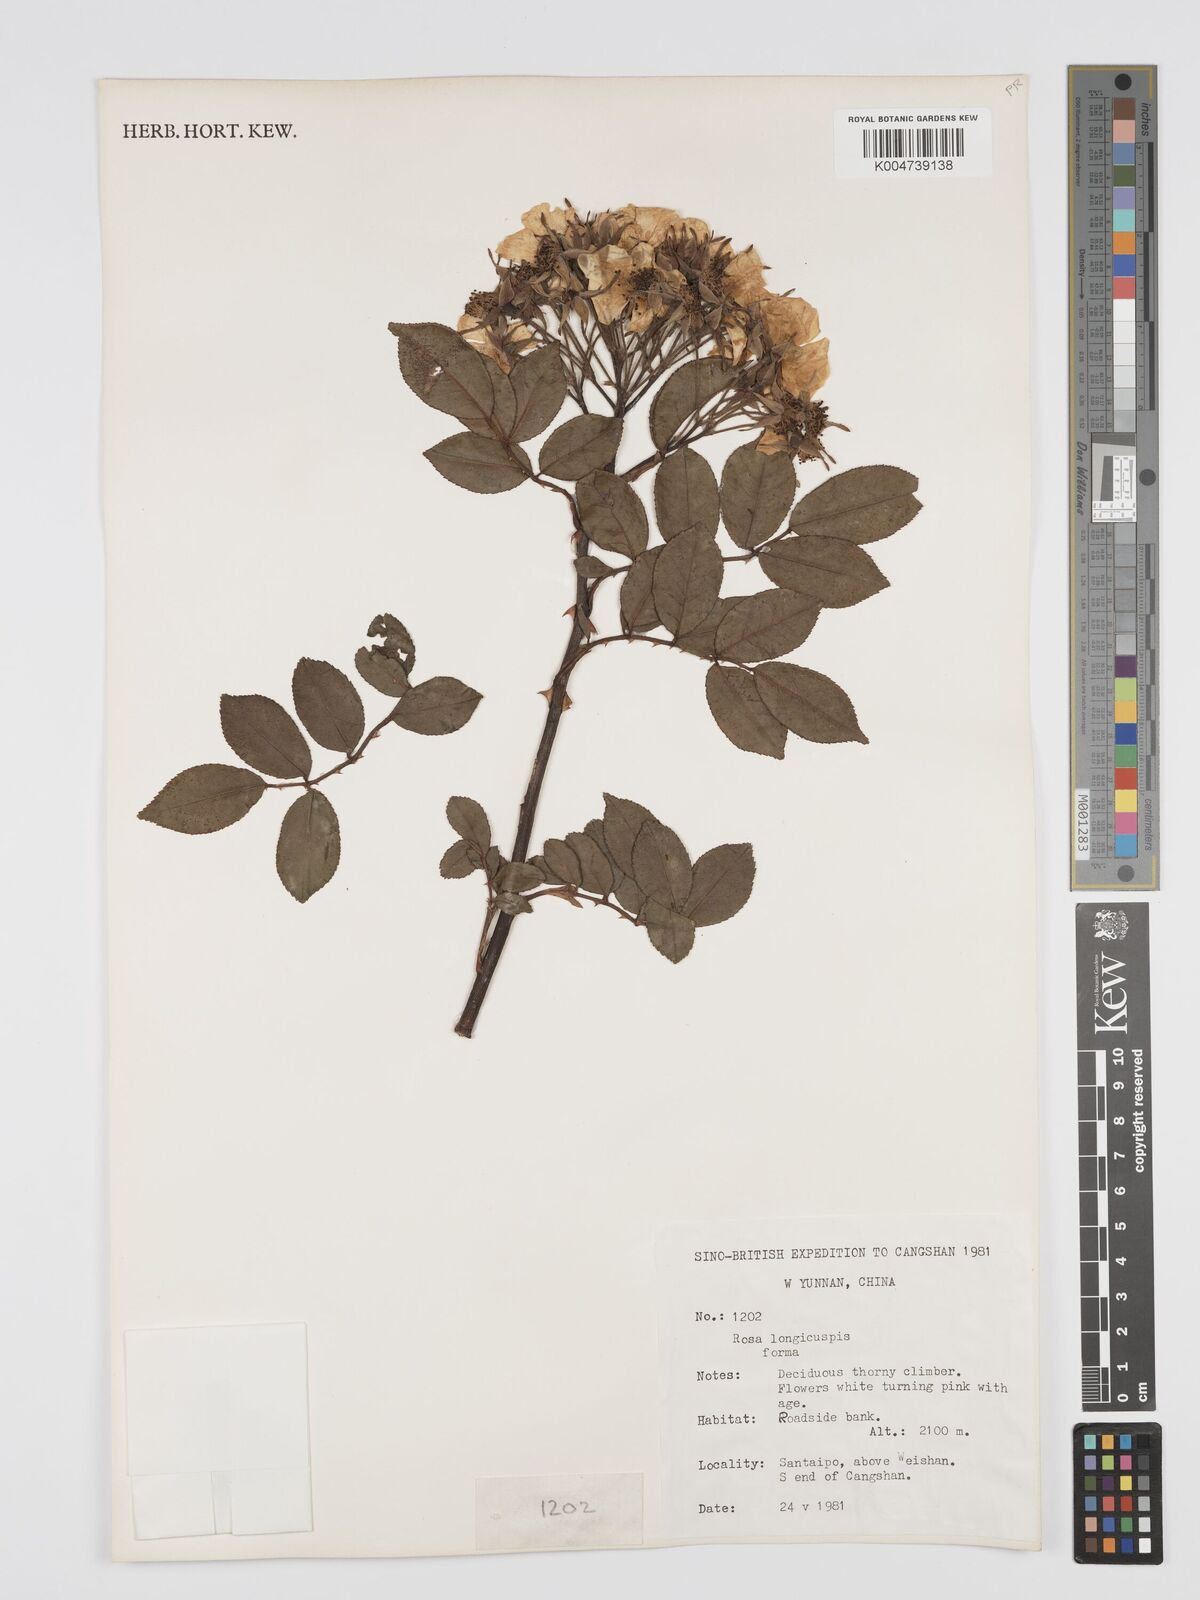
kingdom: Plantae
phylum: Tracheophyta
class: Magnoliopsida
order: Rosales
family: Rosaceae
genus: Rosa
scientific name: Rosa longicuspis
